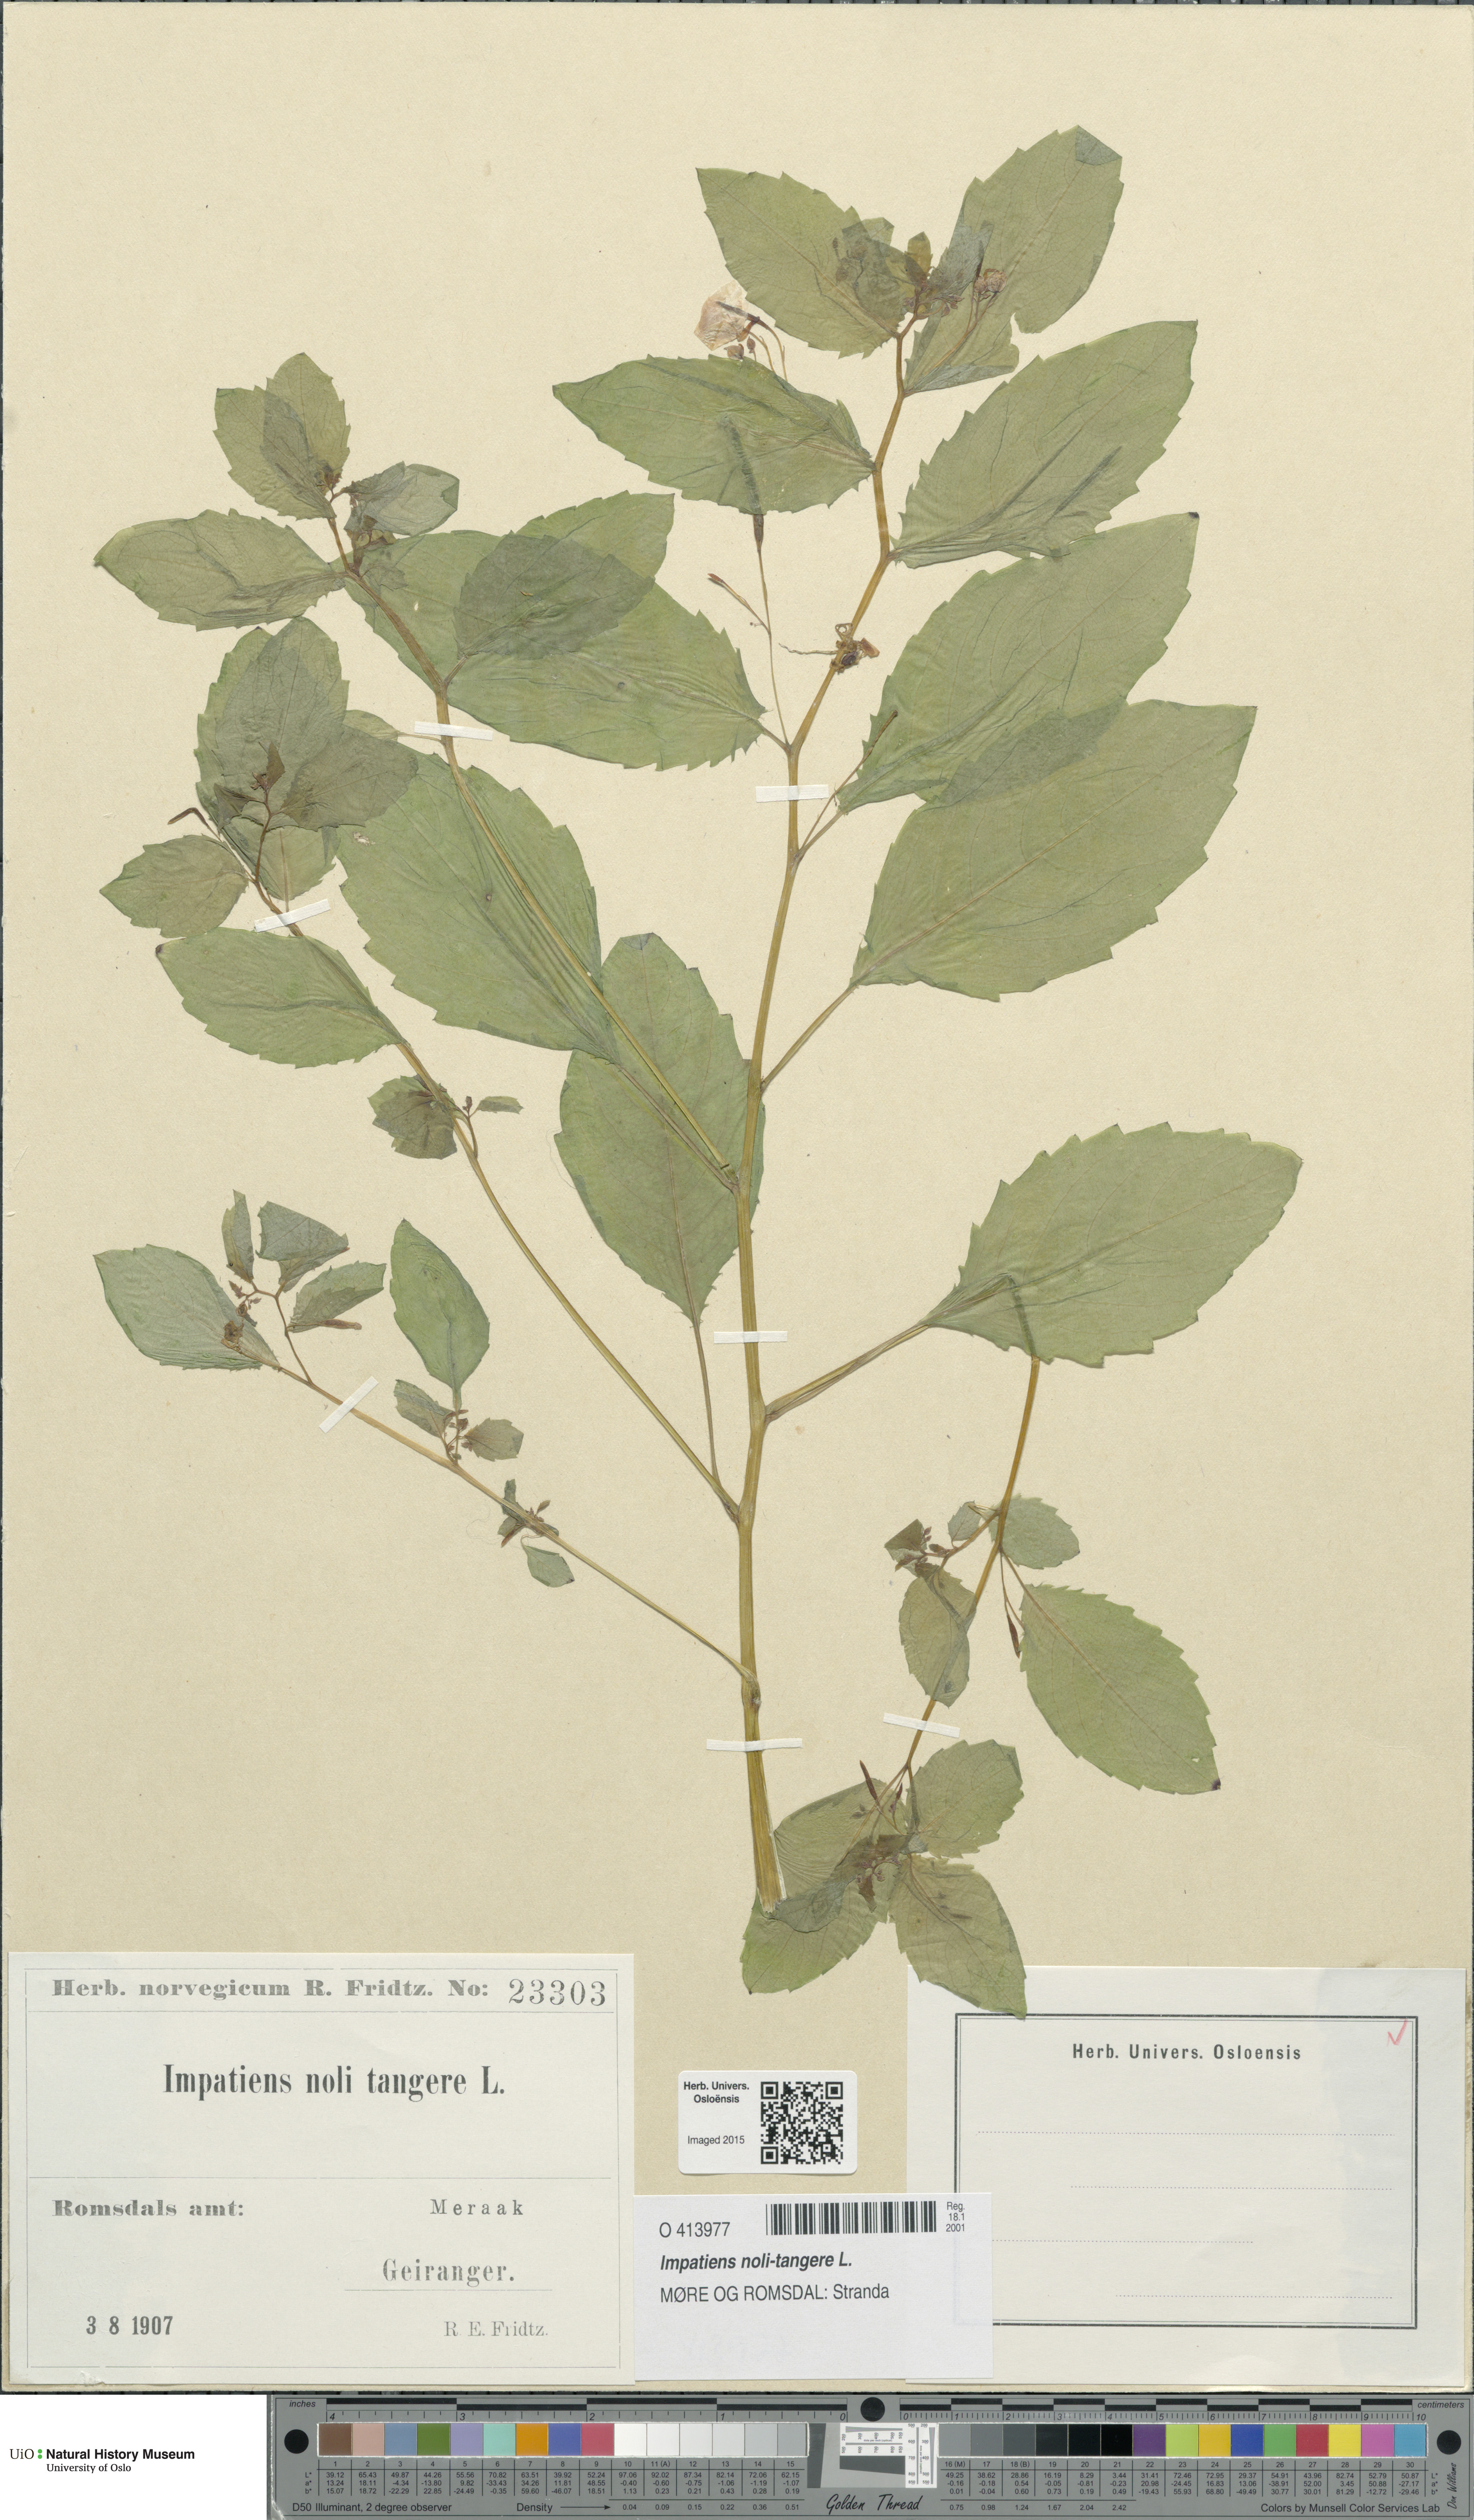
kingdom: Plantae
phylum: Tracheophyta
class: Magnoliopsida
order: Ericales
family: Balsaminaceae
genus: Impatiens
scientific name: Impatiens noli-tangere
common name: Touch-me-not balsam
